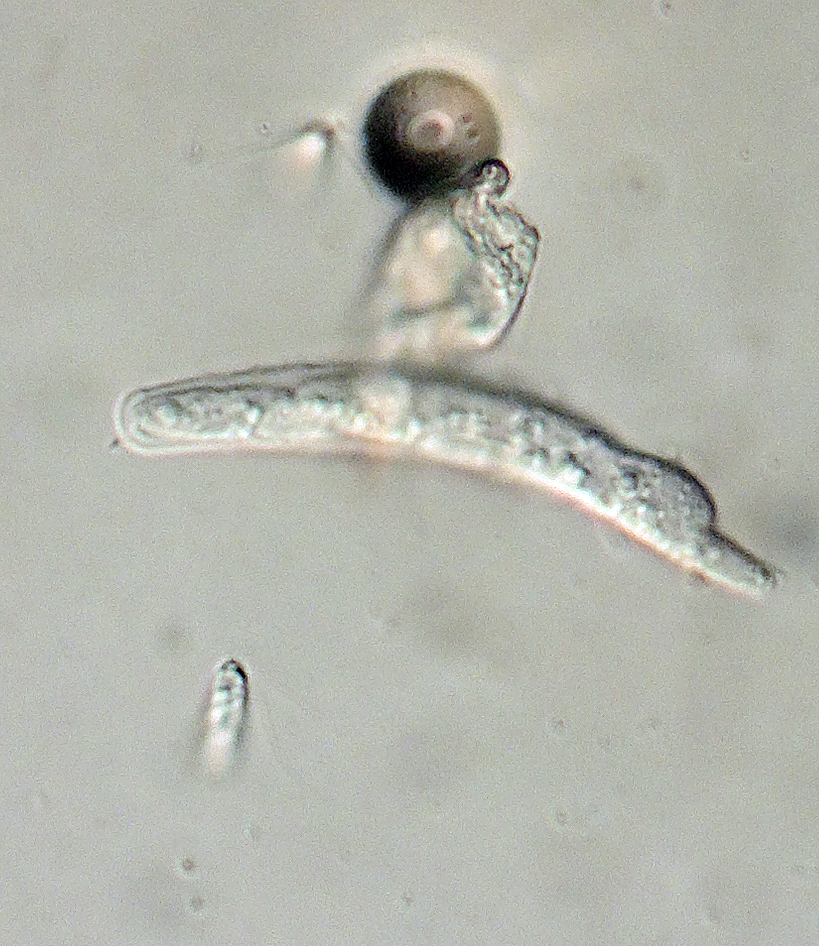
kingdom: Fungi
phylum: Ascomycota
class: Dothideomycetes
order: Microthyriales
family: Microthyriaceae
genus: Microthyrium
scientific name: Microthyrium ilicinum
